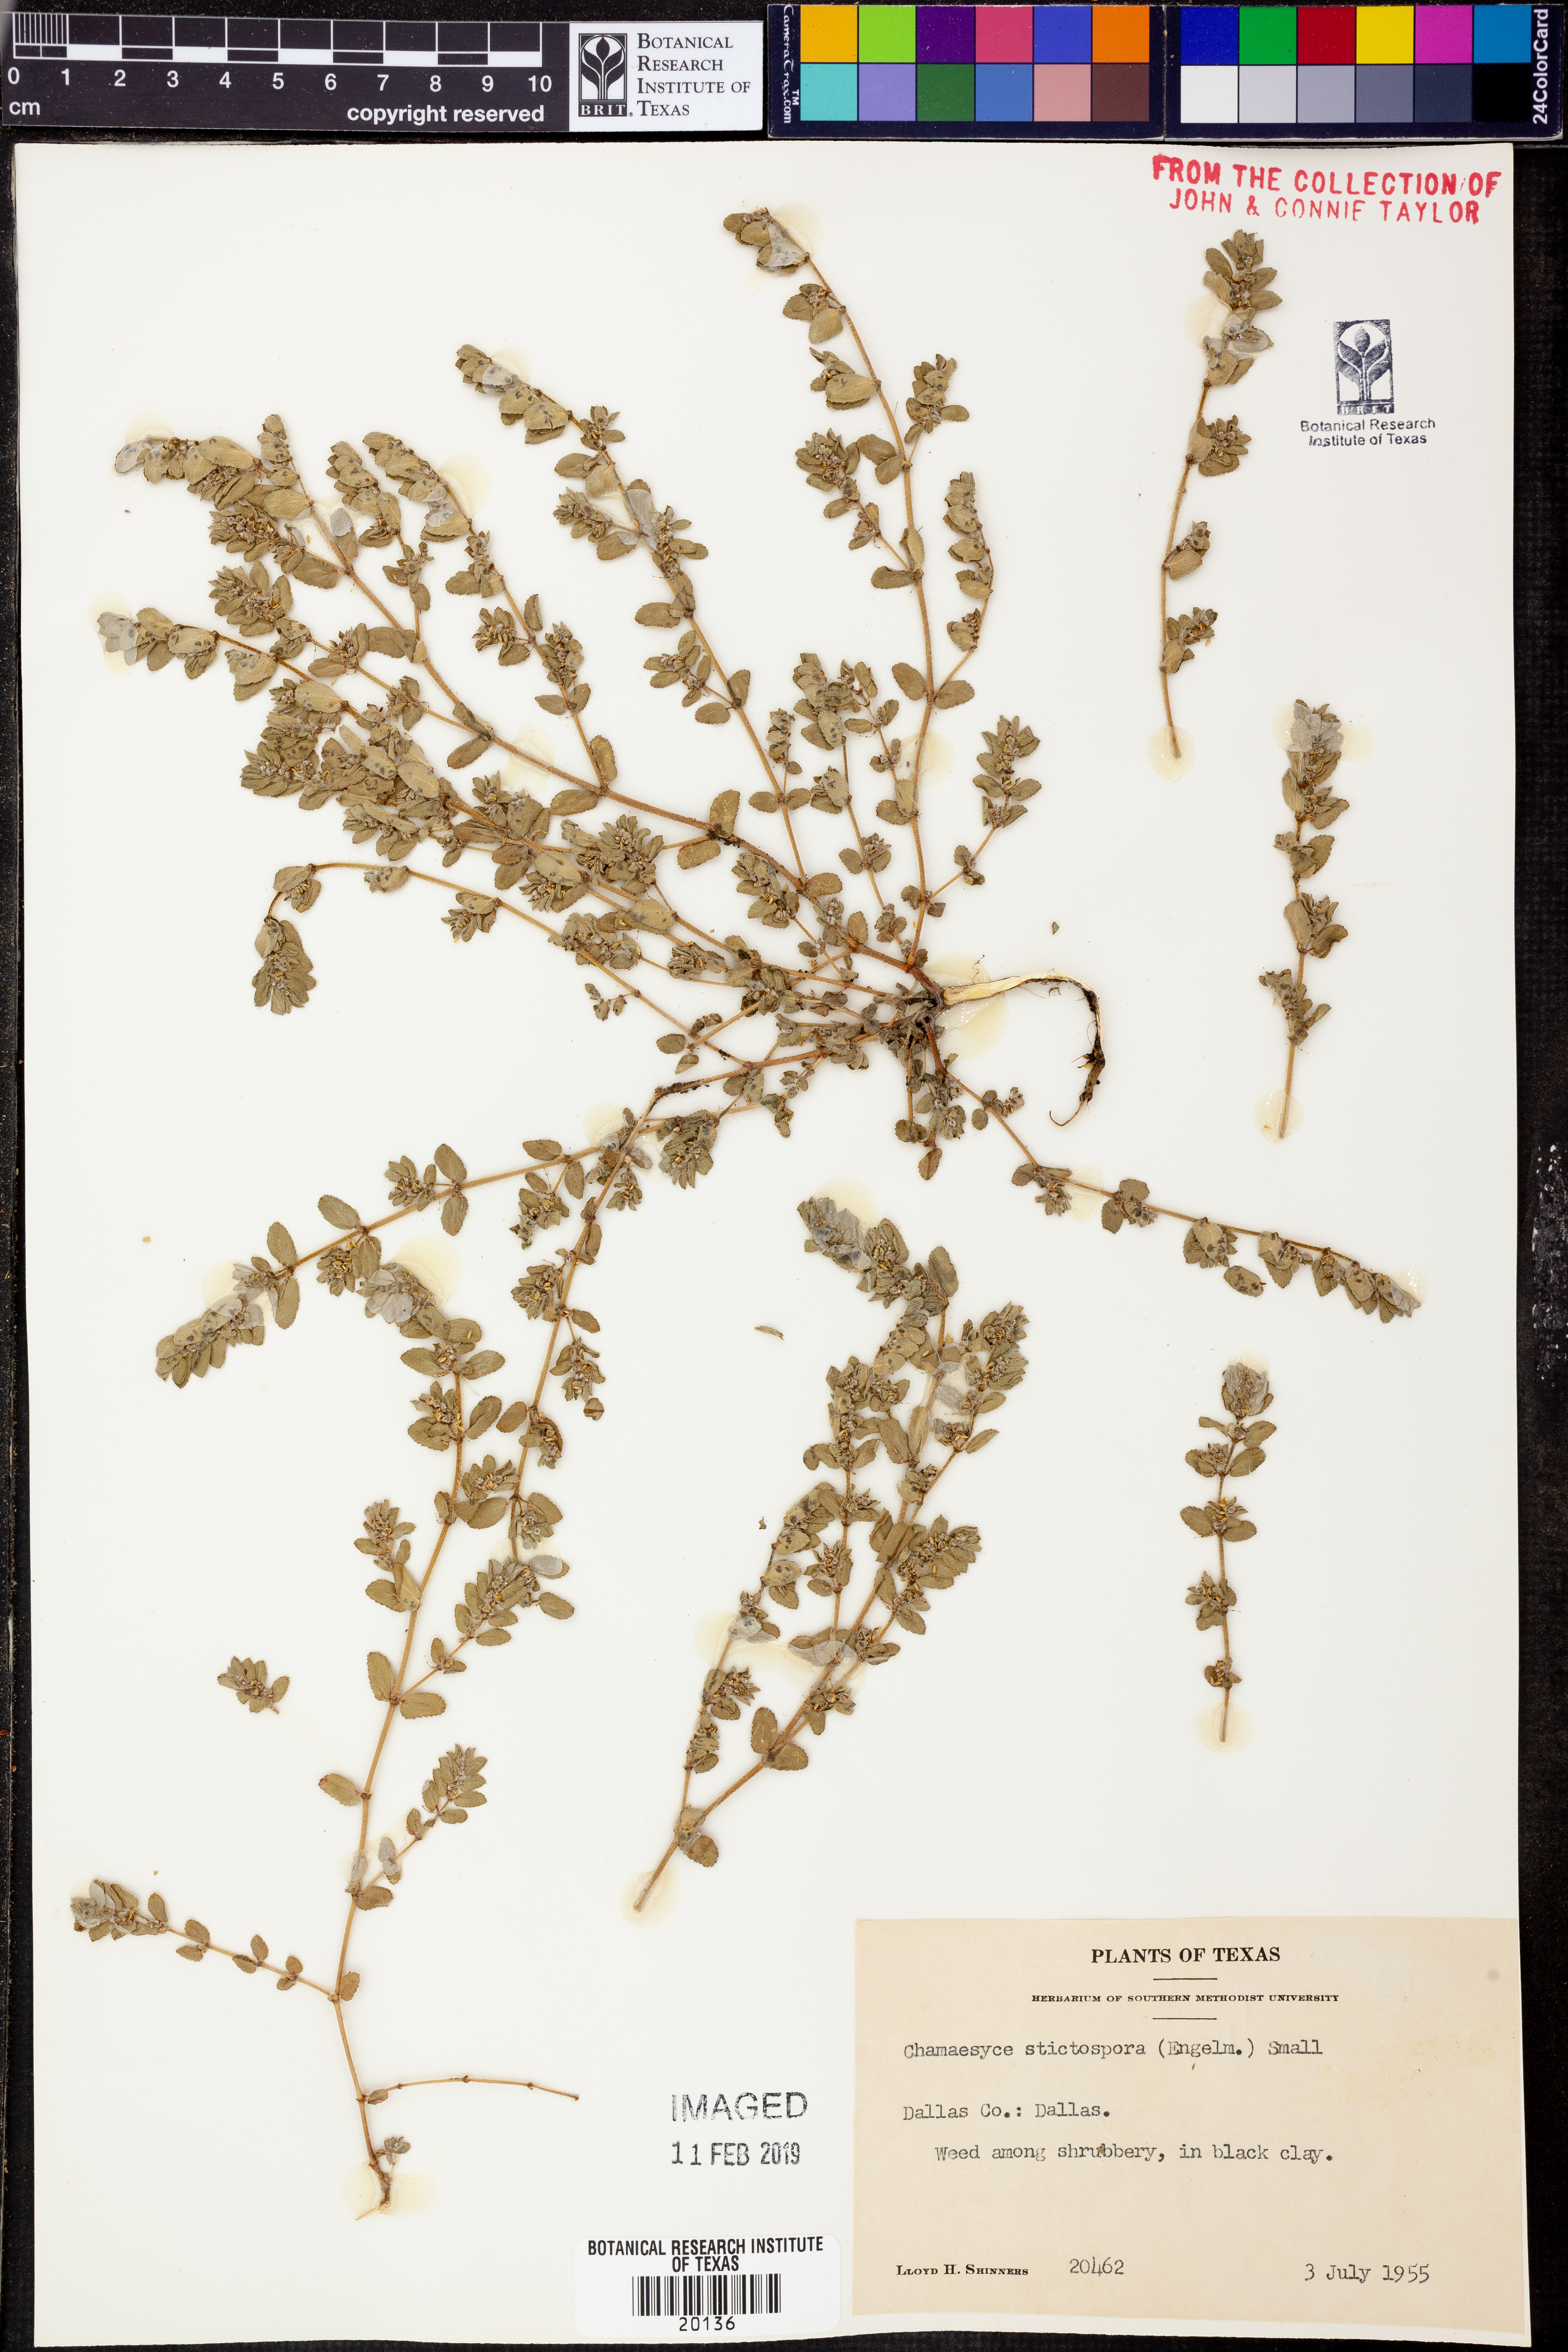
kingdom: Plantae
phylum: Tracheophyta
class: Magnoliopsida
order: Malpighiales
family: Euphorbiaceae
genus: Euphorbia
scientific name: Euphorbia stictospora
